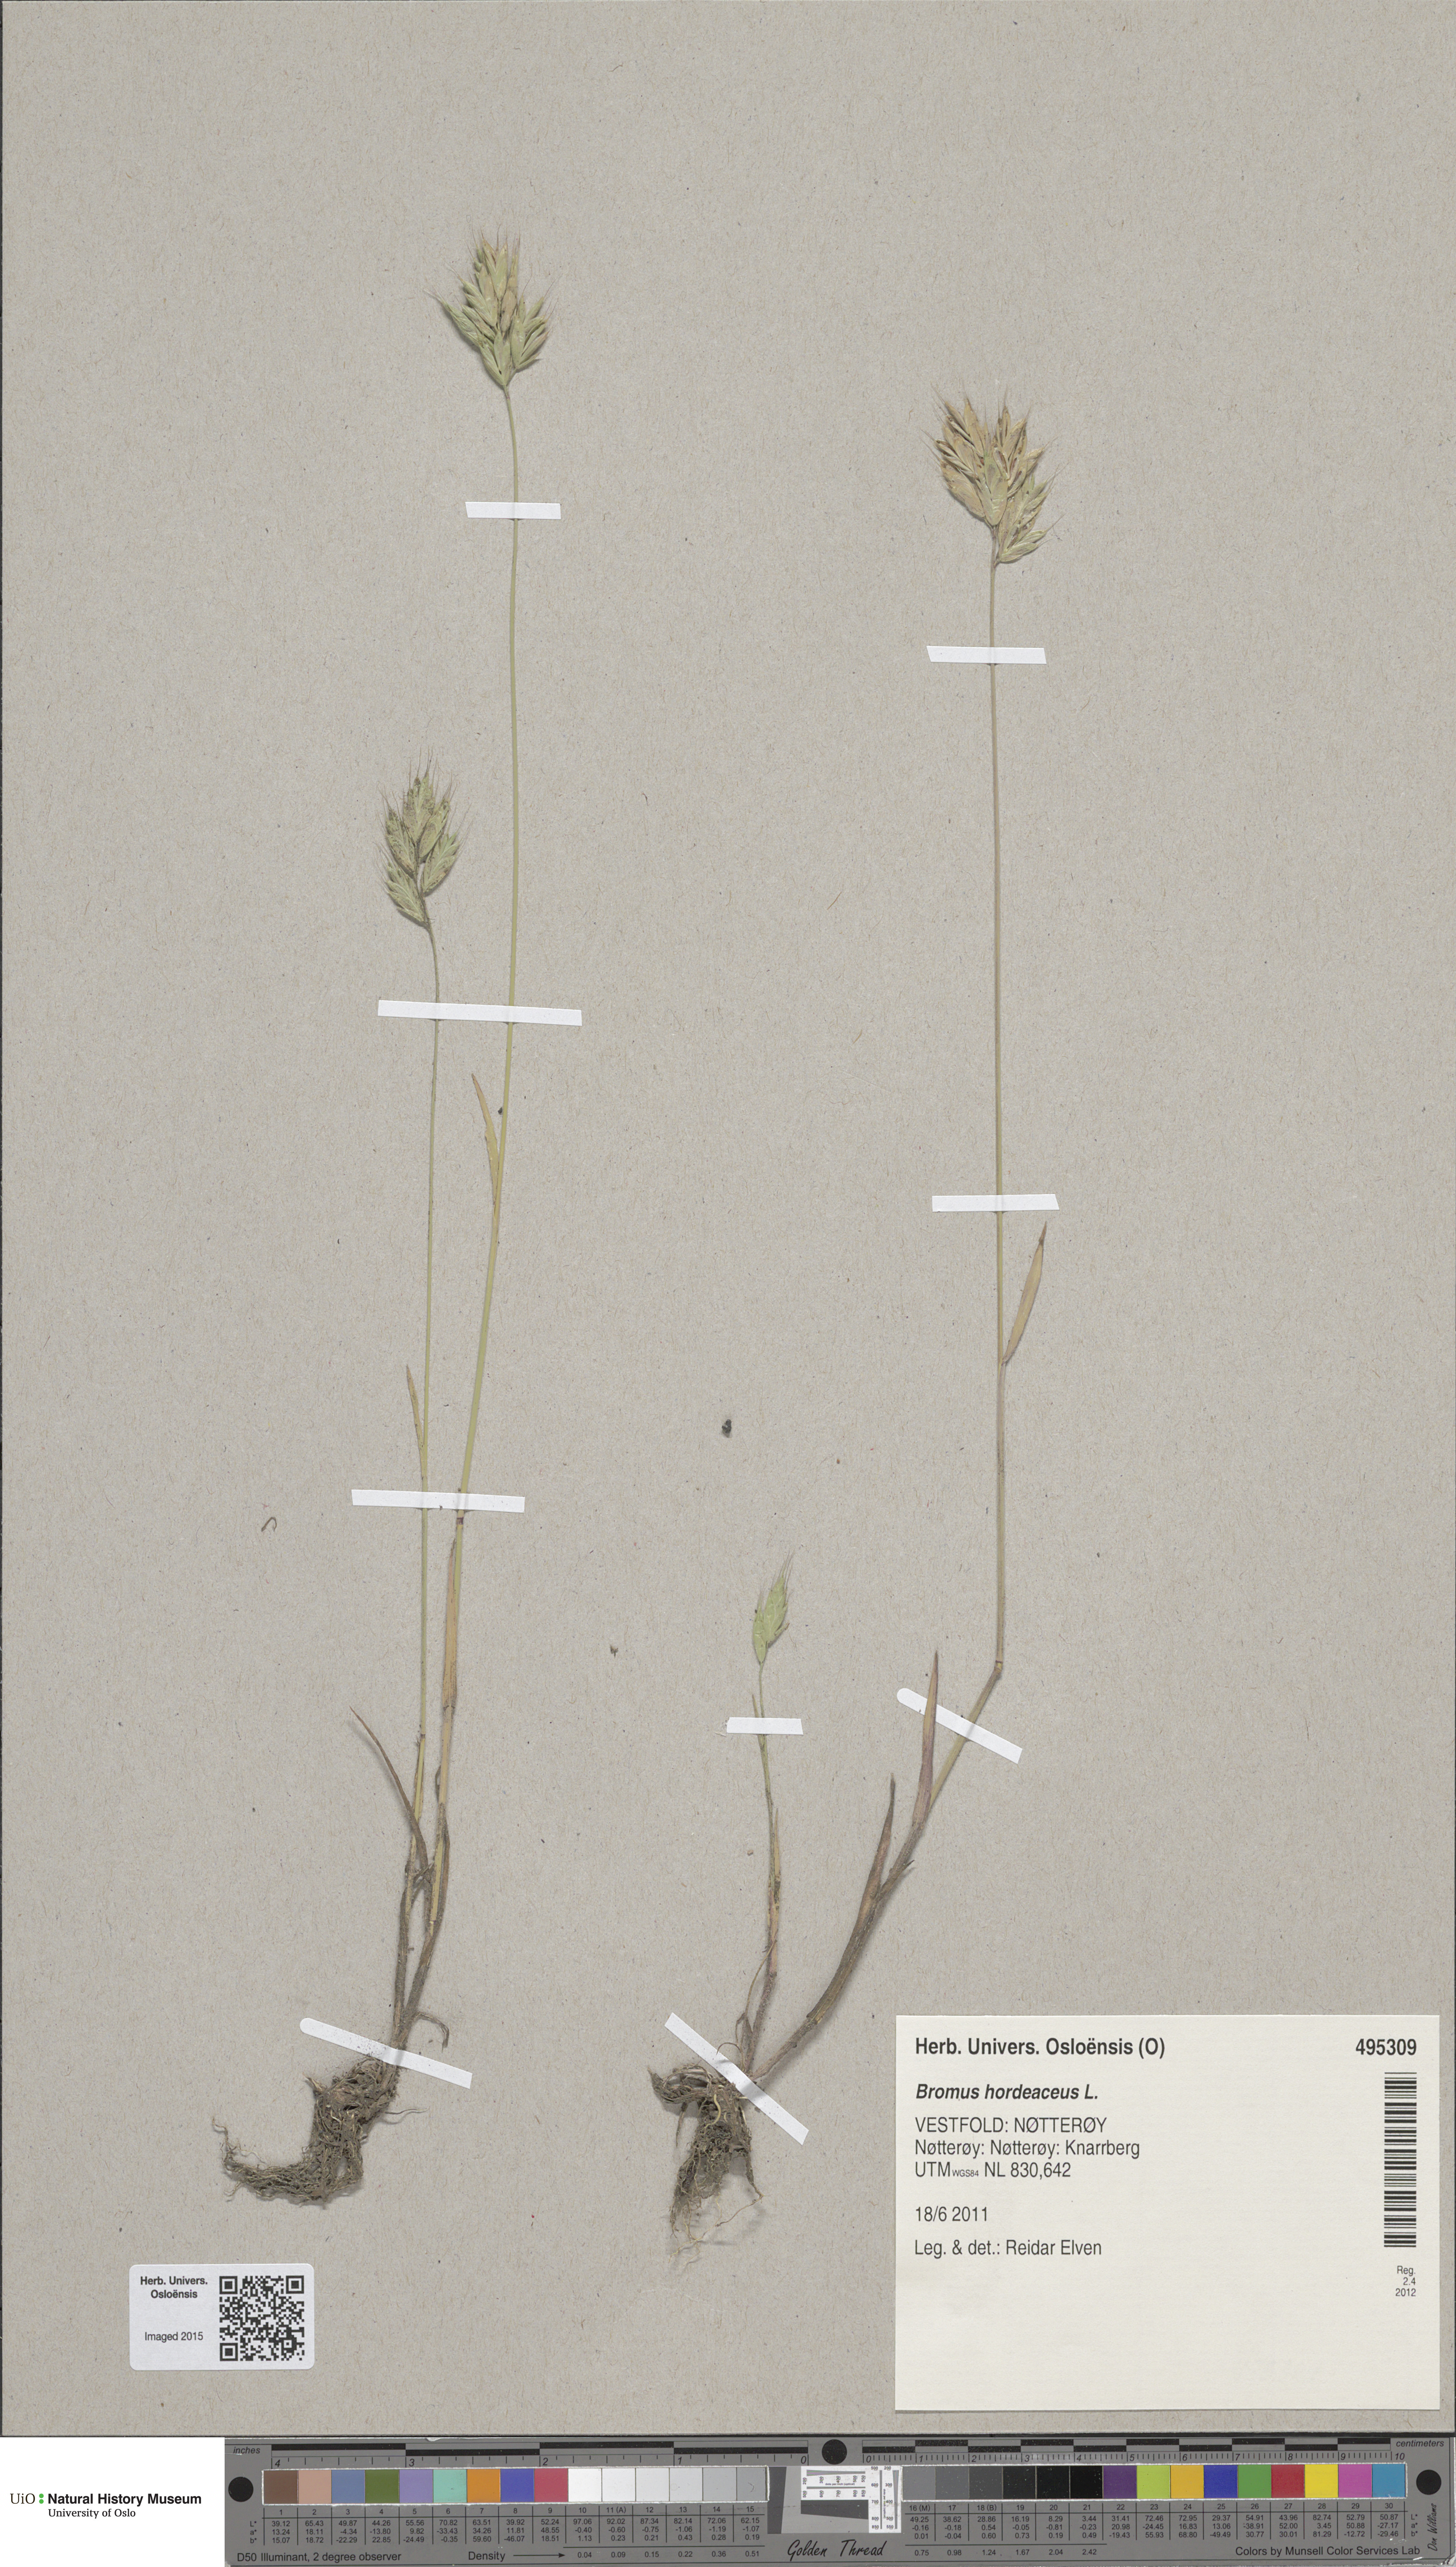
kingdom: Plantae
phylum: Tracheophyta
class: Liliopsida
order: Poales
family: Poaceae
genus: Bromus
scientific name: Bromus hordeaceus
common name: Soft brome
